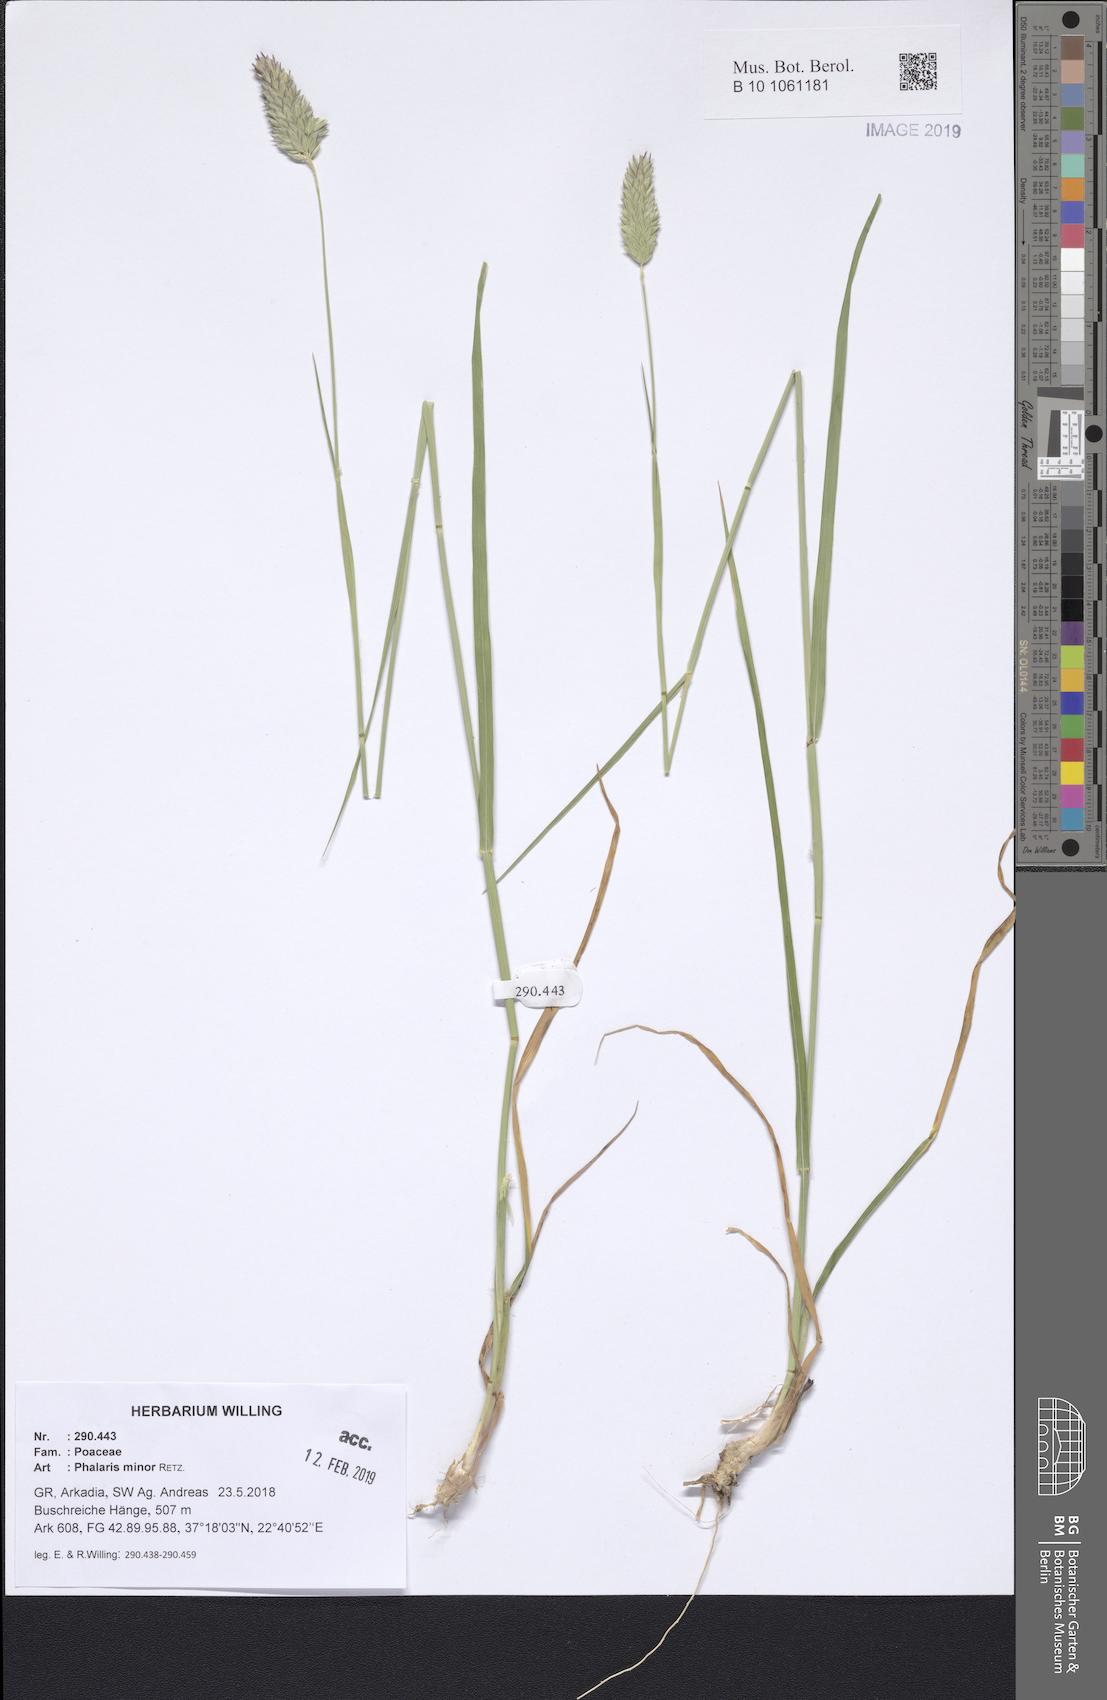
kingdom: Plantae
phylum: Tracheophyta
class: Liliopsida
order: Poales
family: Poaceae
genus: Phalaris
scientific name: Phalaris minor
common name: Littleseed canarygrass
